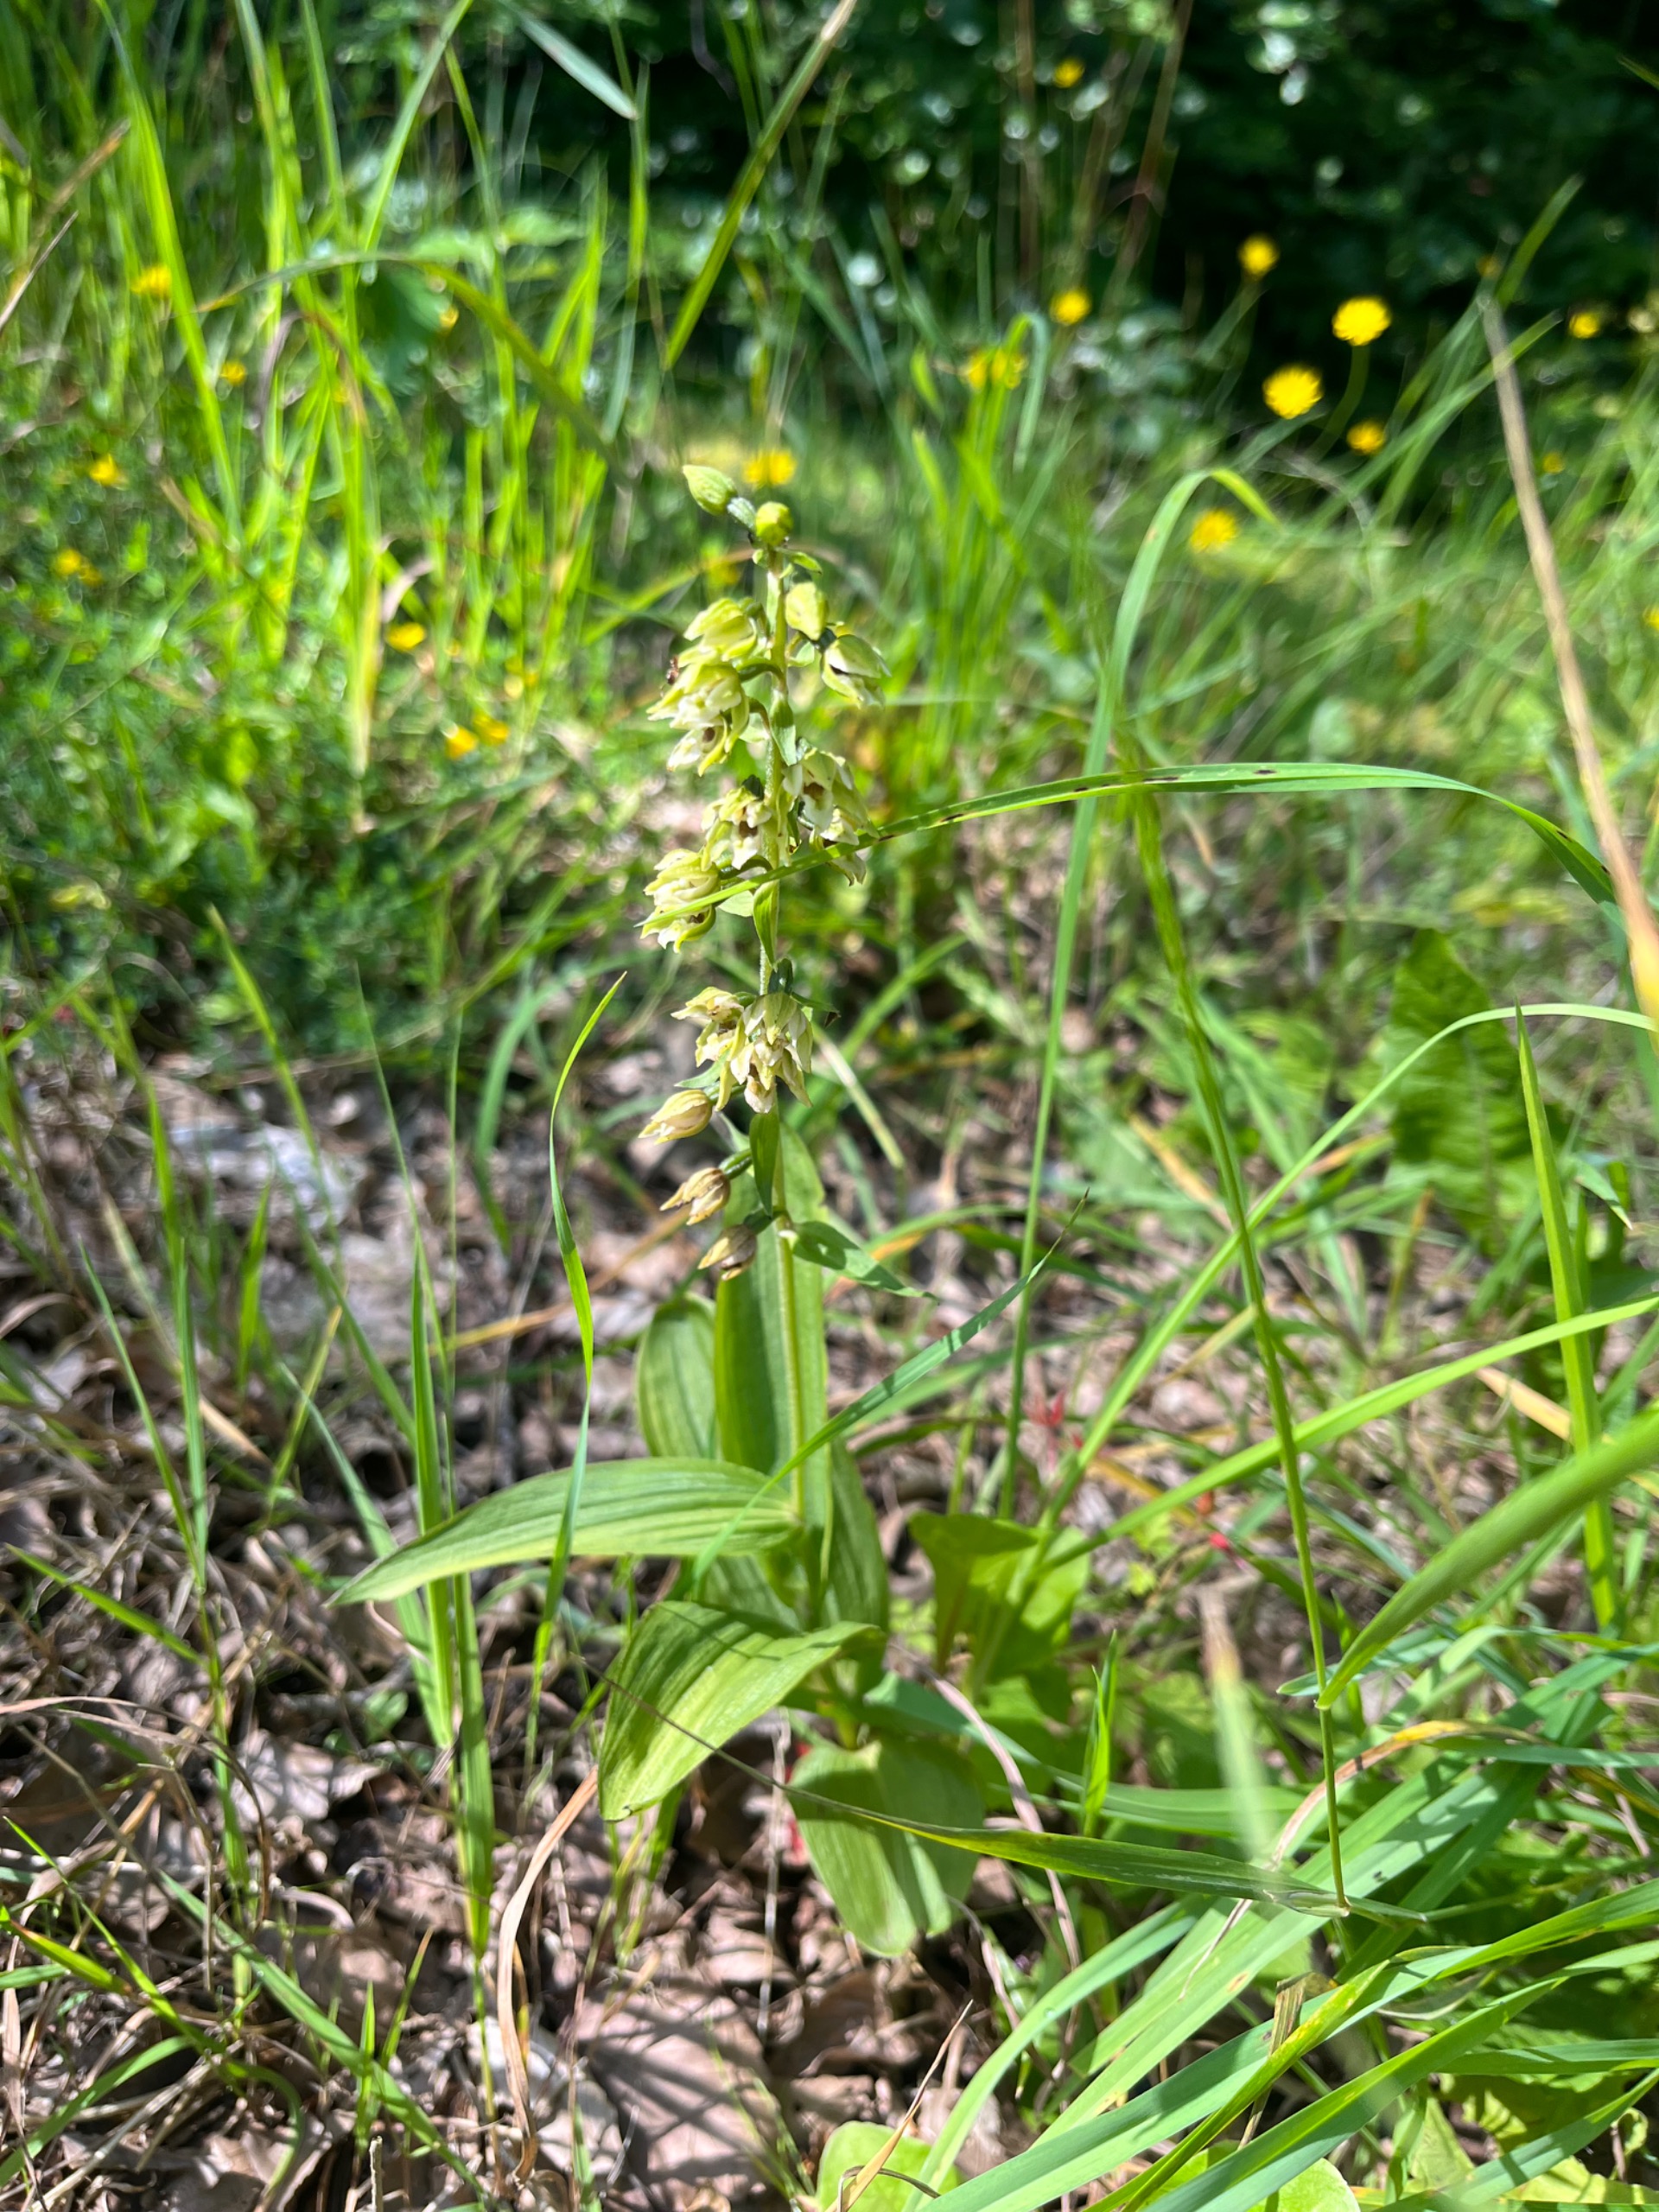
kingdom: Plantae
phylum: Tracheophyta
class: Liliopsida
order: Asparagales
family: Orchidaceae
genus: Epipactis
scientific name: Epipactis helleborine
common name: Skov-hullæbe
